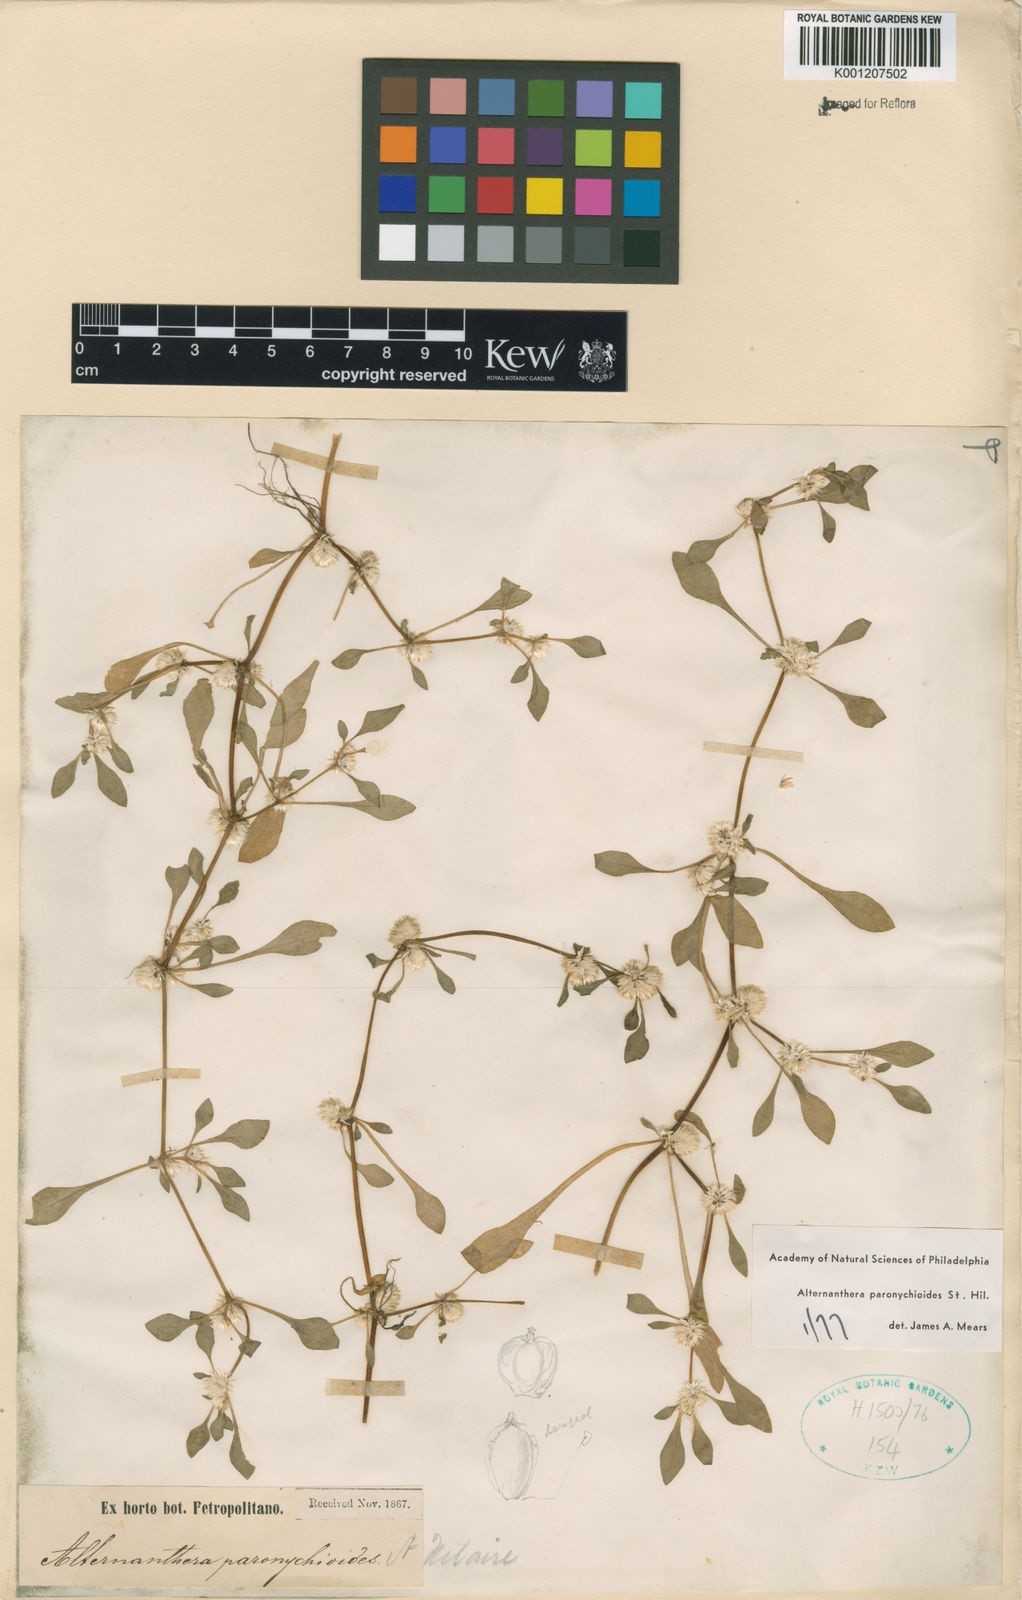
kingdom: Plantae
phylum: Tracheophyta
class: Magnoliopsida
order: Caryophyllales
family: Amaranthaceae
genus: Alternanthera
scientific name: Alternanthera paronychioides
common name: Smooth joyweed
